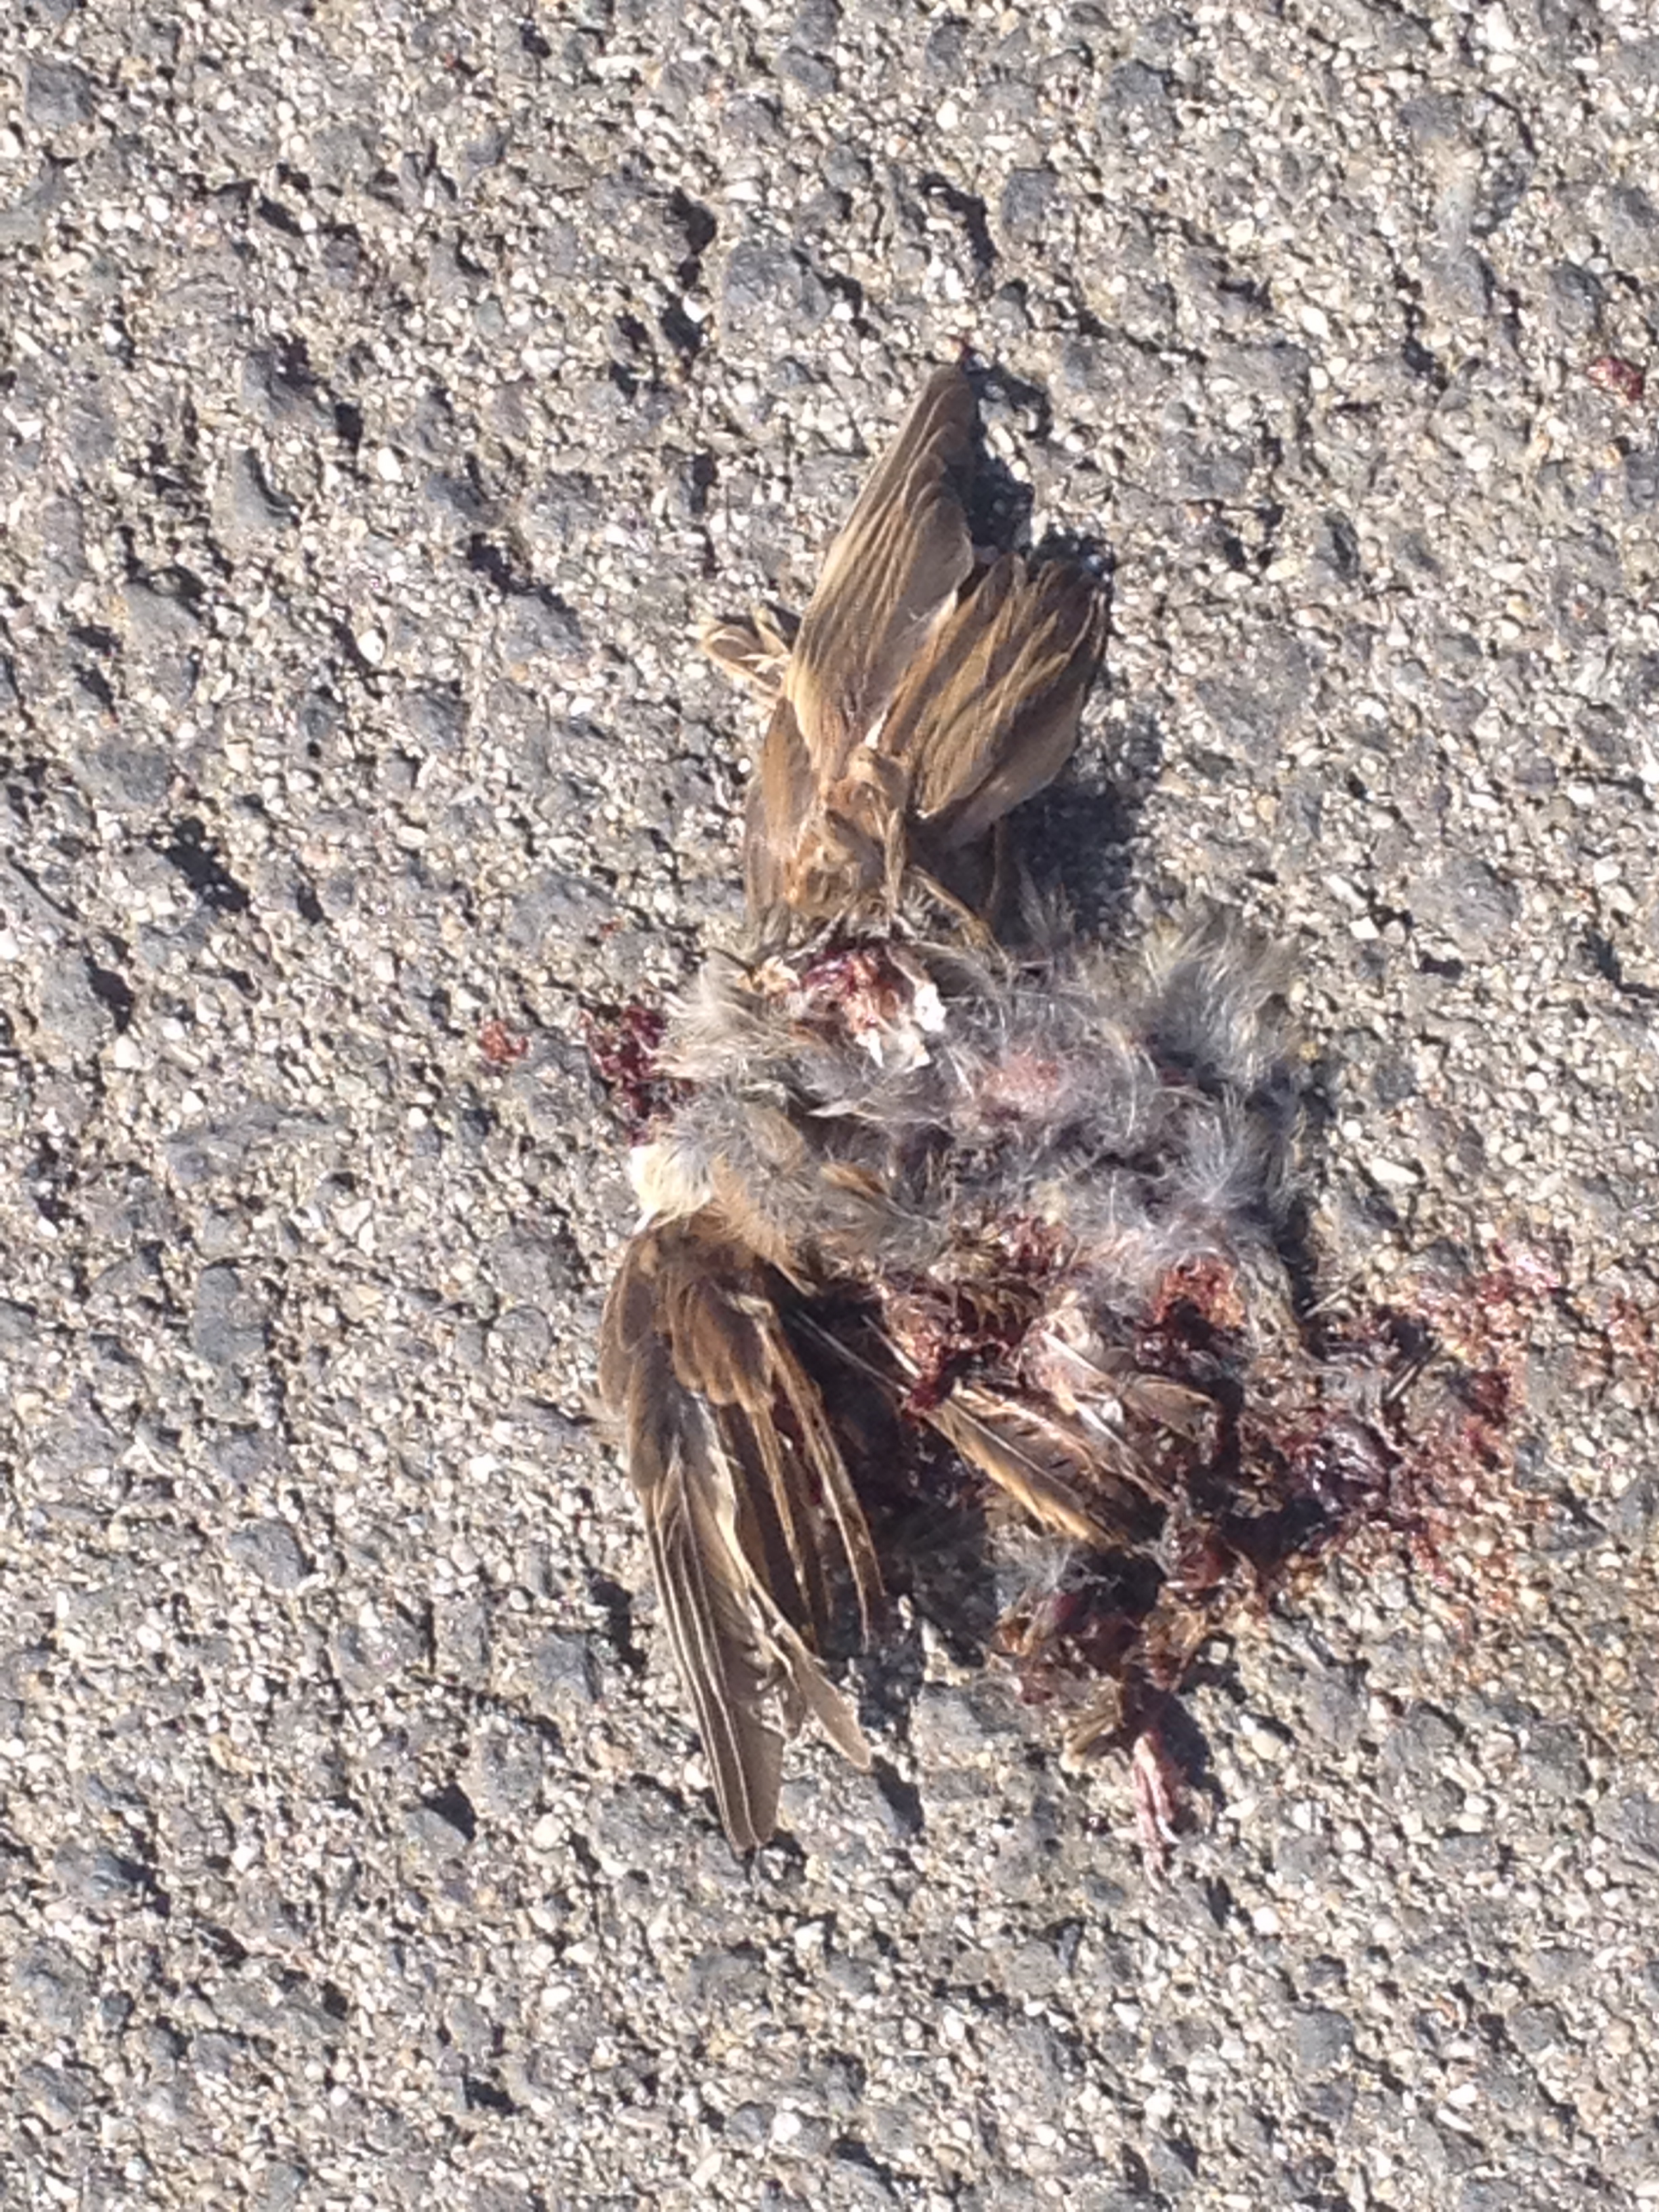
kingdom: Animalia
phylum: Chordata
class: Aves
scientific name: Aves
